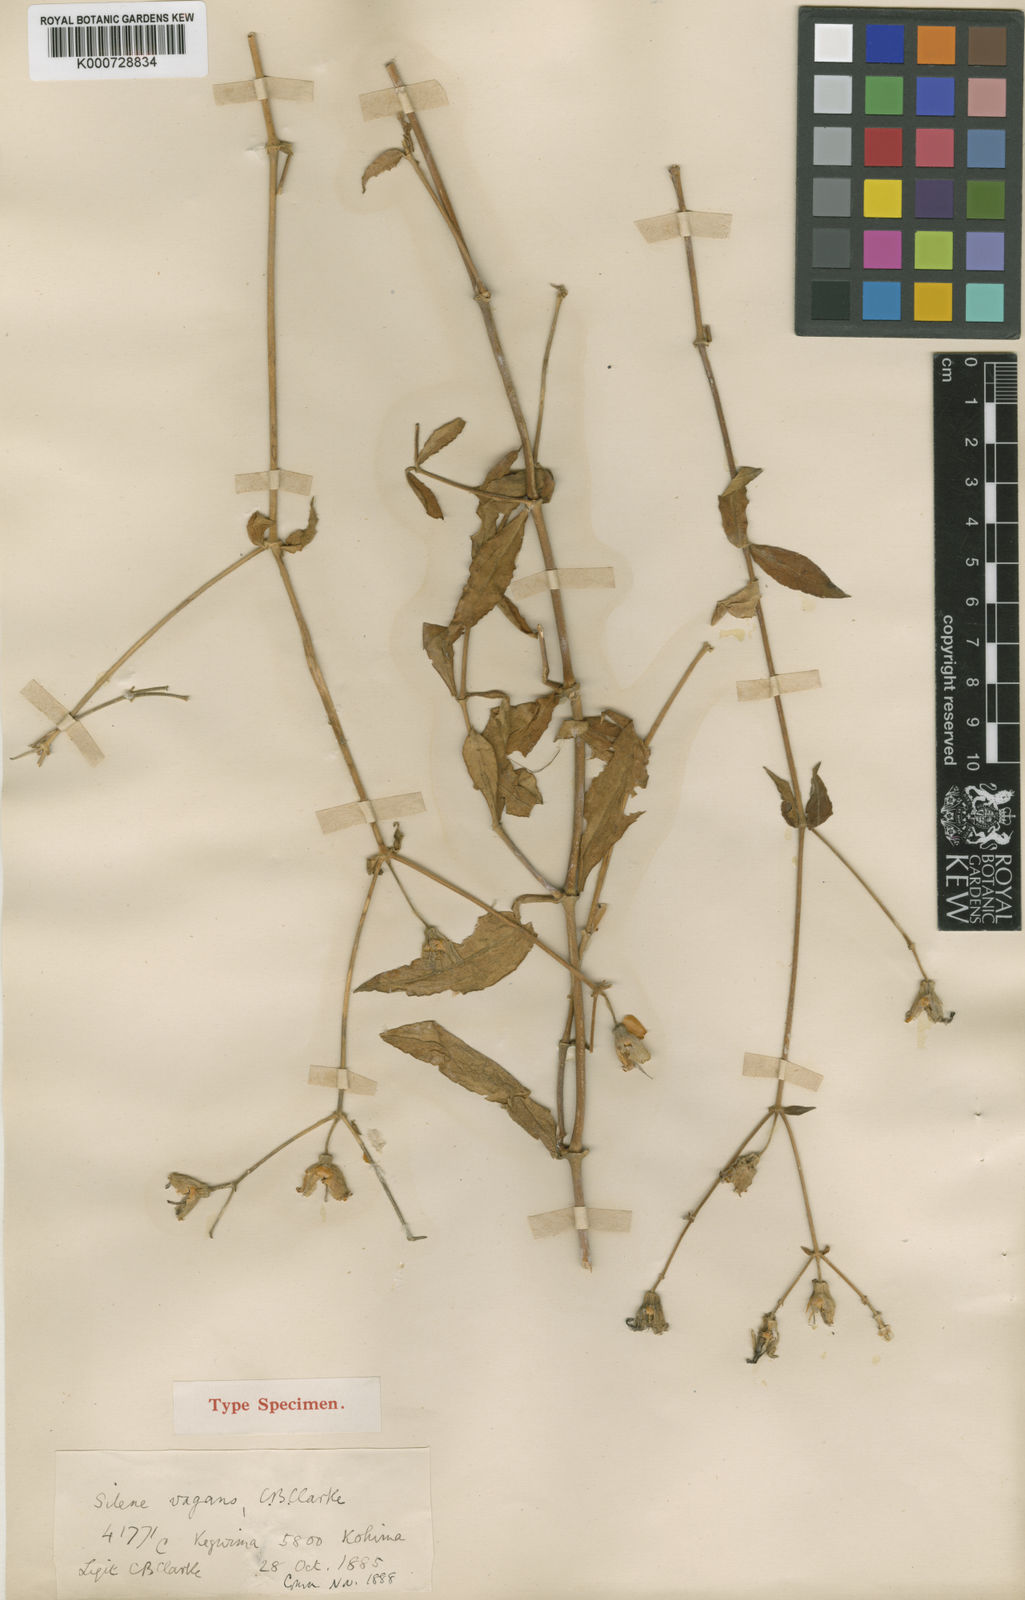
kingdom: Plantae
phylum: Tracheophyta
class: Magnoliopsida
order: Caryophyllales
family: Caryophyllaceae
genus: Silene
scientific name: Silene vagans
